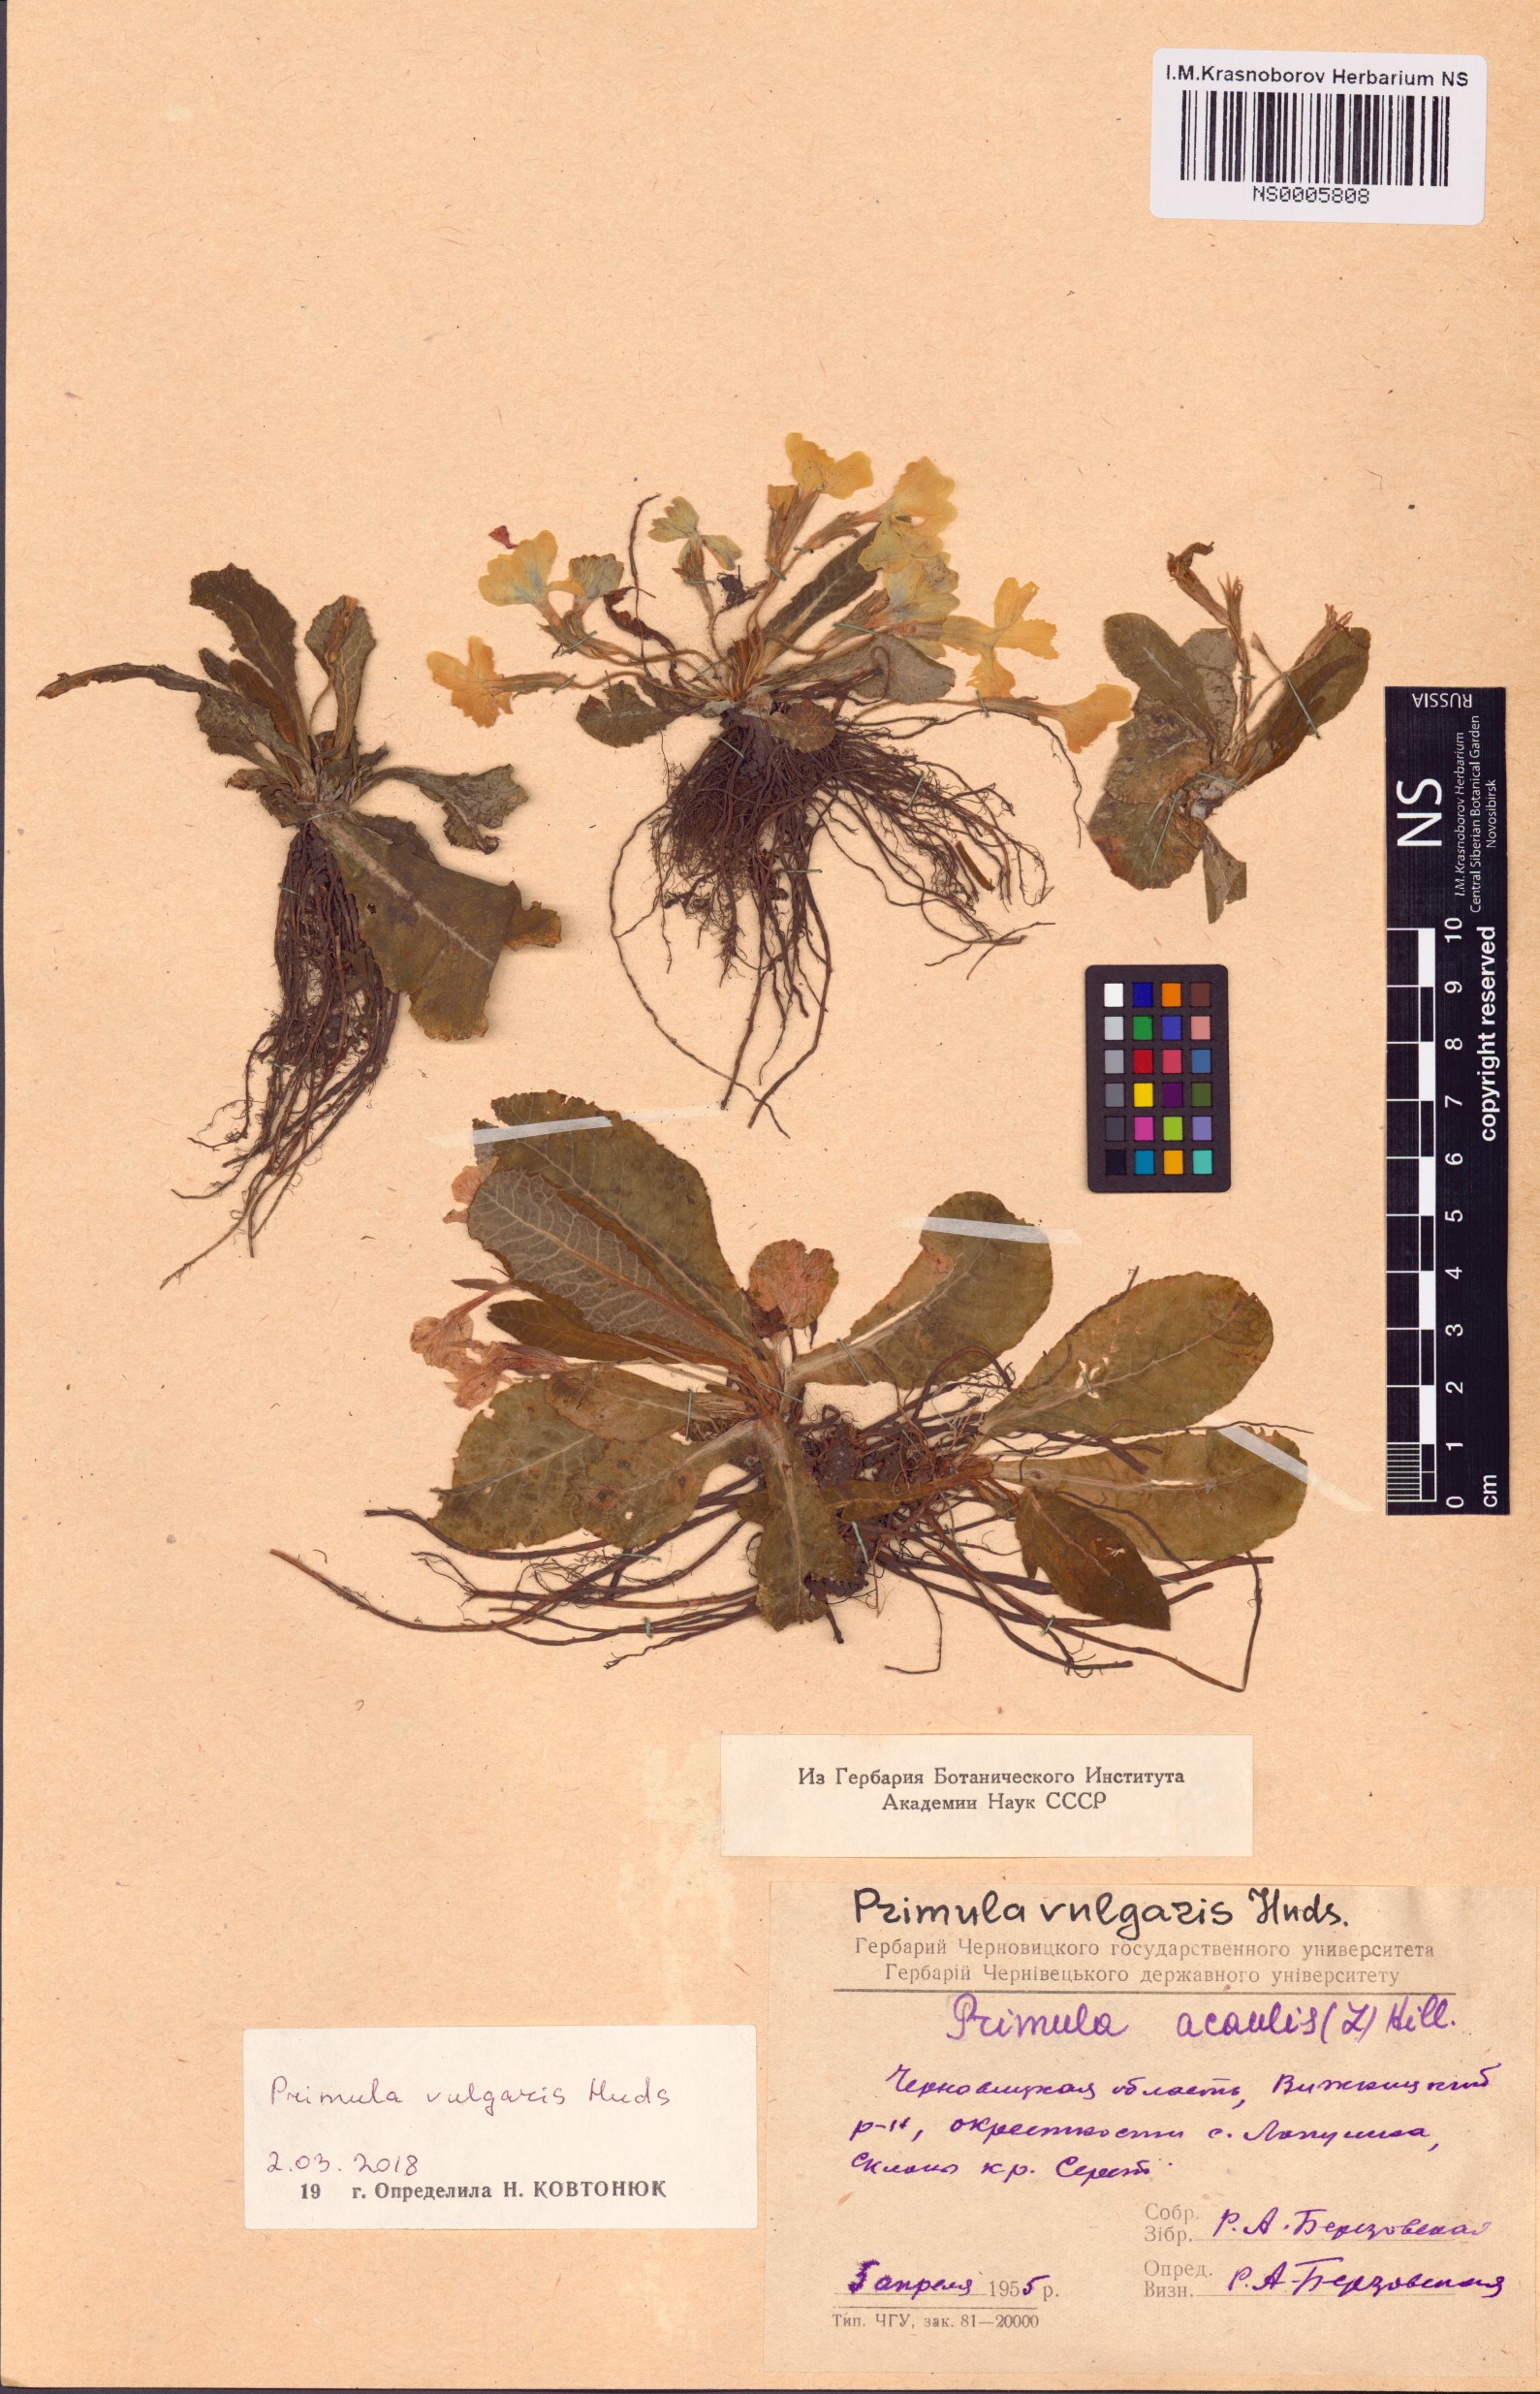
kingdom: Plantae
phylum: Tracheophyta
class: Magnoliopsida
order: Ericales
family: Primulaceae
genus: Primula
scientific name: Primula vulgaris
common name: Primrose
